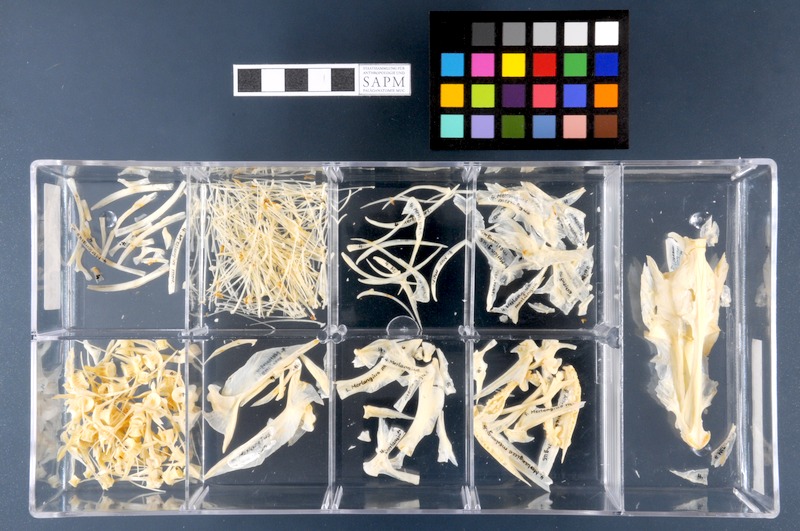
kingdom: Animalia
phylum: Chordata
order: Gadiformes
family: Gadidae
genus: Merlangius
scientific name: Merlangius merlangus
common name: Whiting
